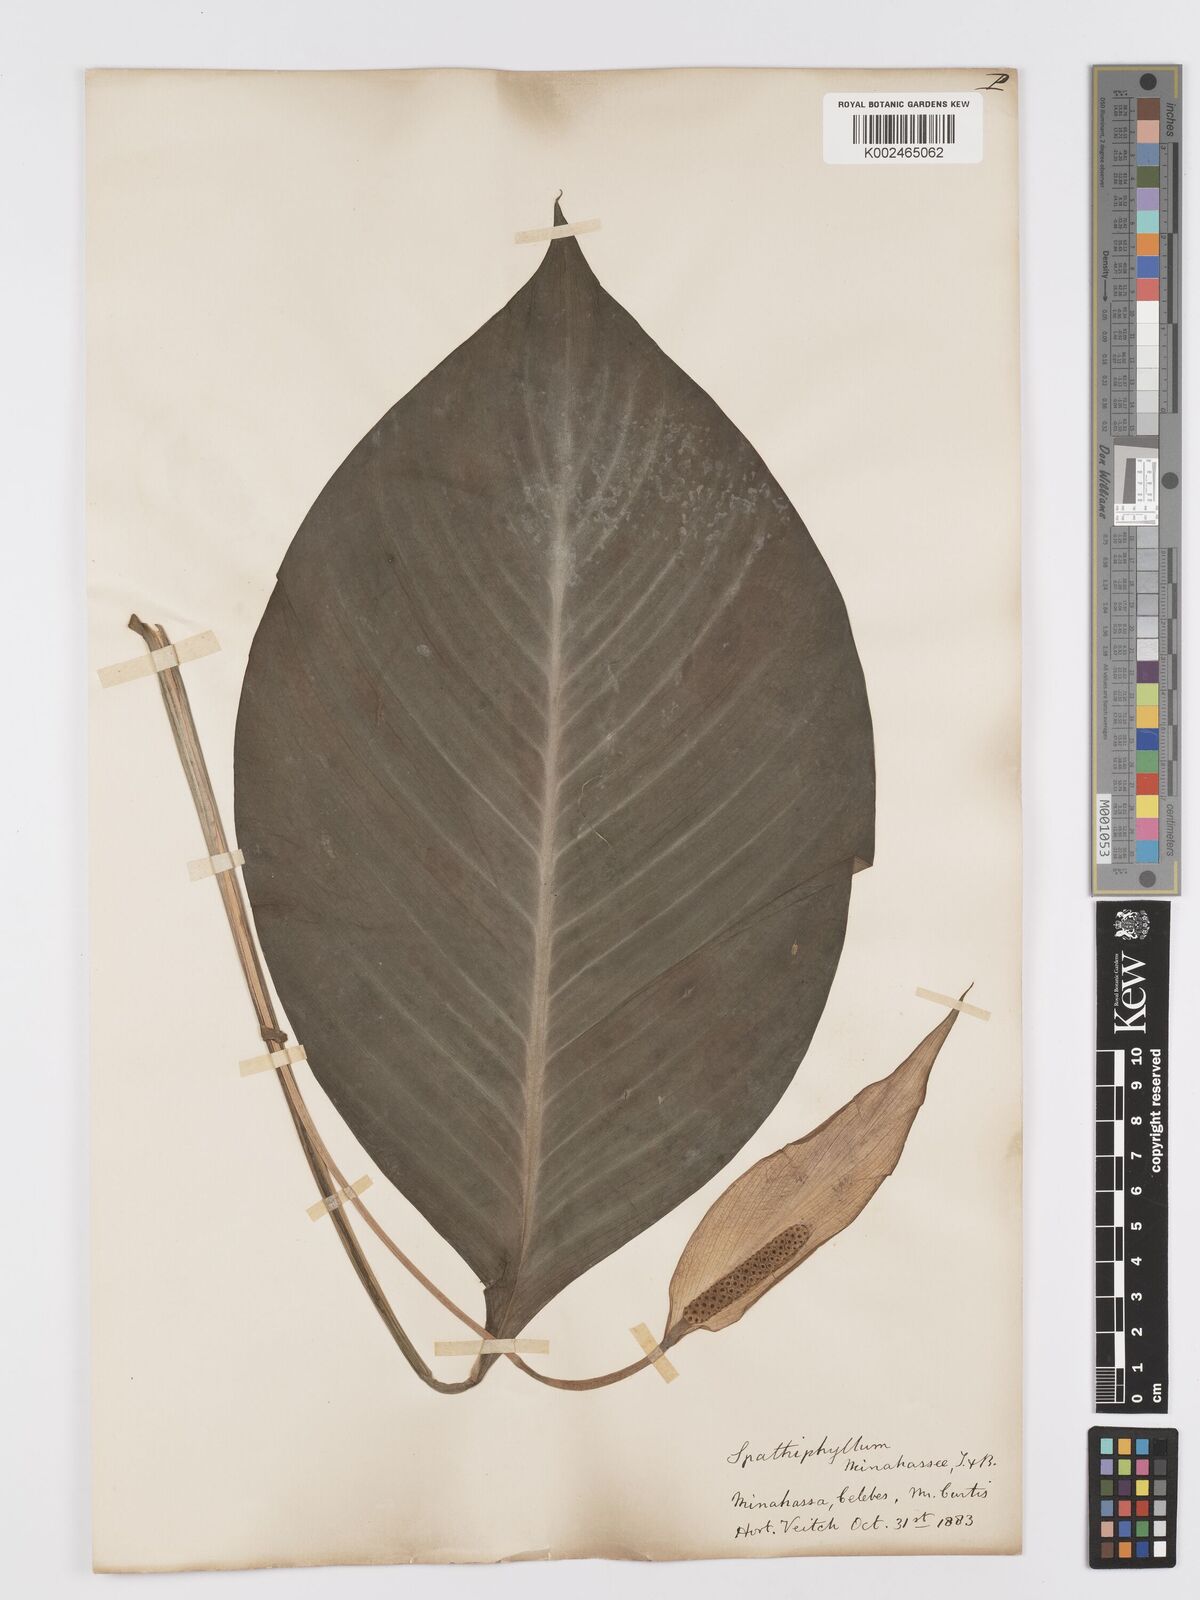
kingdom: Plantae
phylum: Tracheophyta
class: Liliopsida
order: Alismatales
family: Araceae
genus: Spathiphyllum
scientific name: Spathiphyllum commutatum
